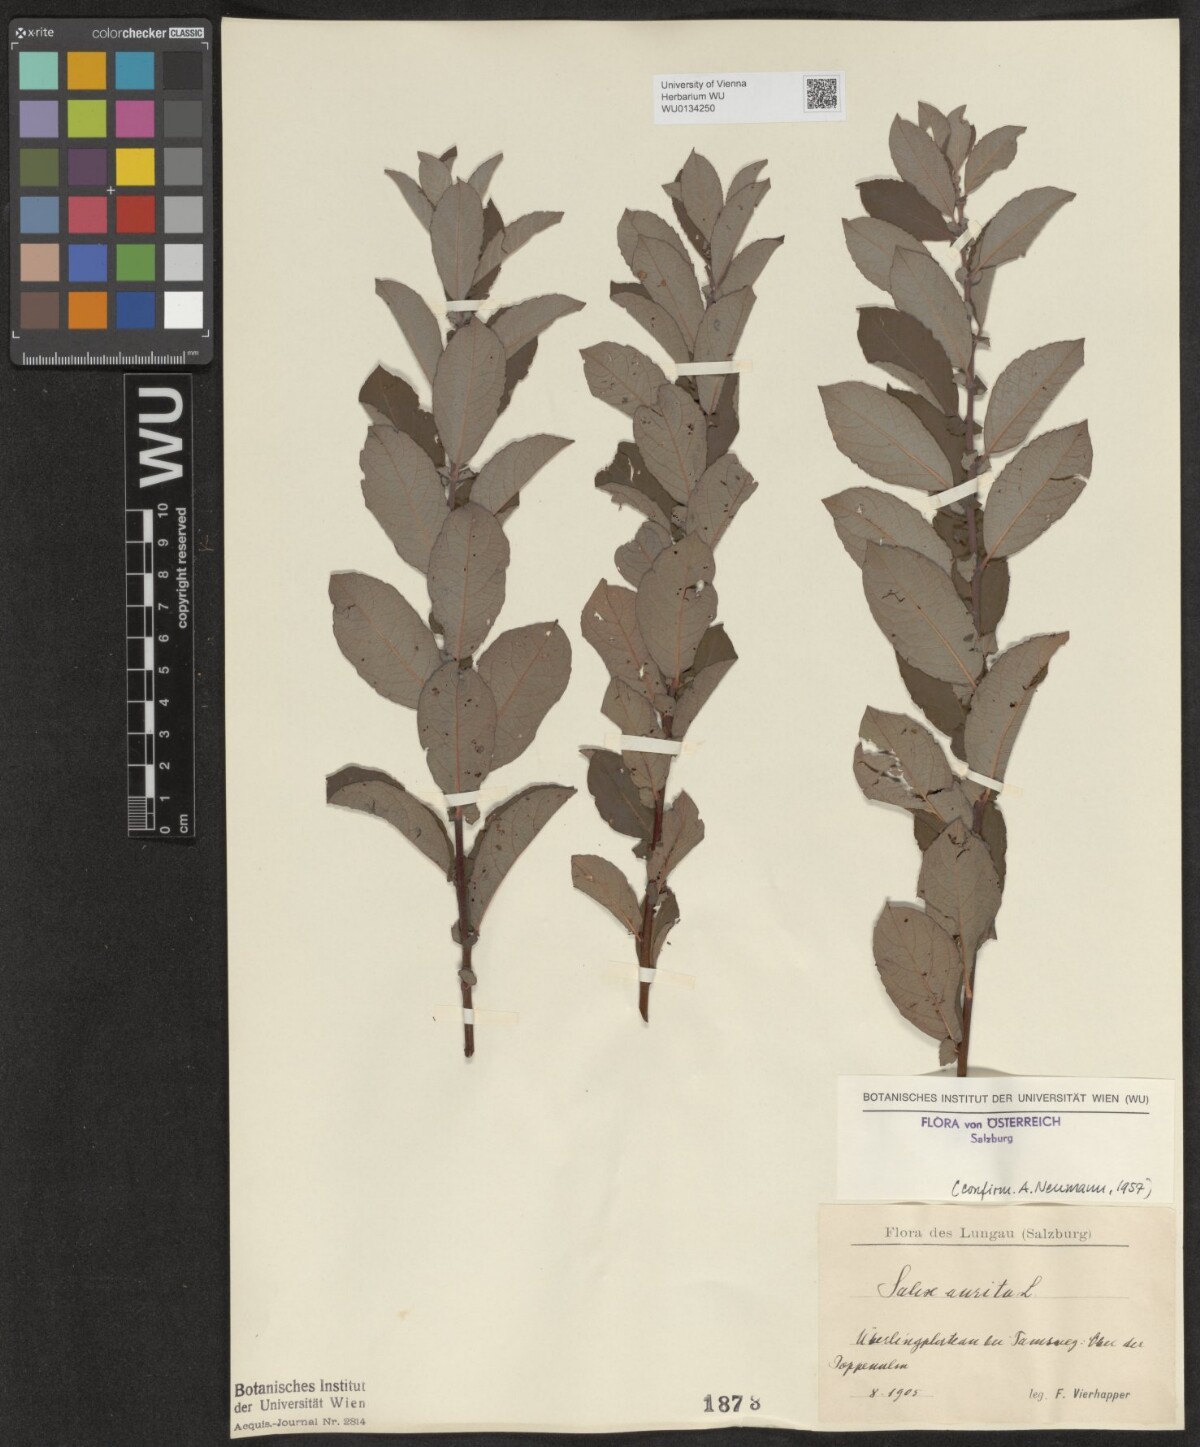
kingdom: Plantae
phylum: Tracheophyta
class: Magnoliopsida
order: Malpighiales
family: Salicaceae
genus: Salix
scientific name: Salix aurita
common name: Eared willow
